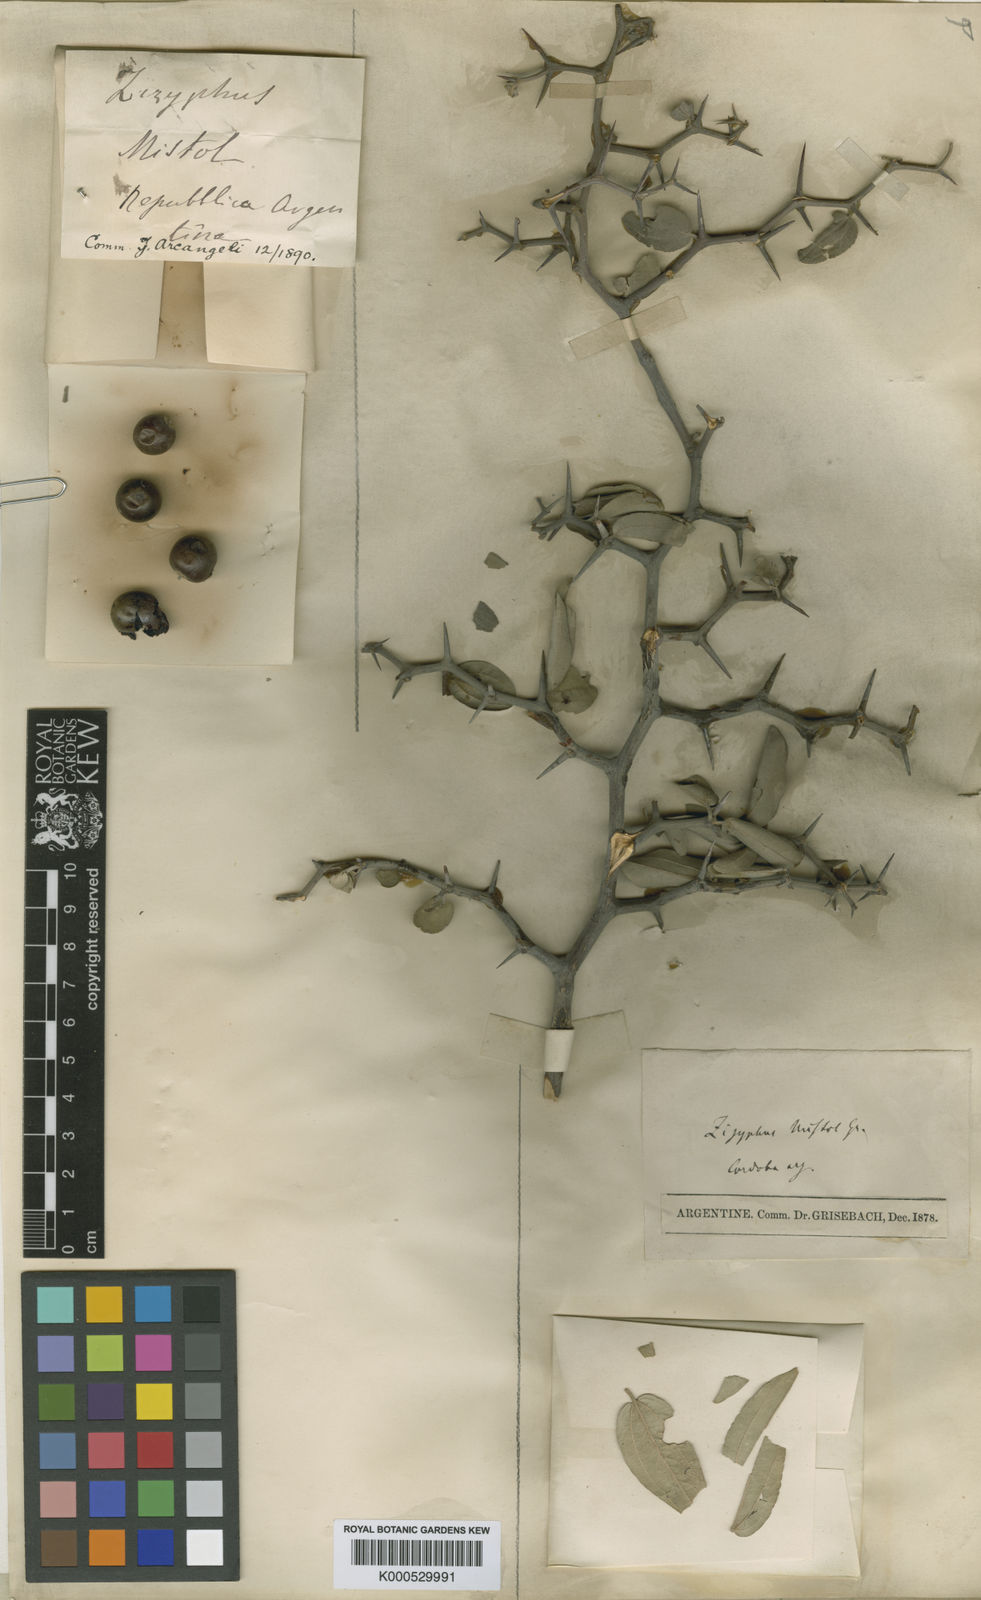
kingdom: Plantae
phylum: Tracheophyta
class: Magnoliopsida
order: Rosales
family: Rhamnaceae
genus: Sarcomphalus
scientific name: Sarcomphalus mistol
